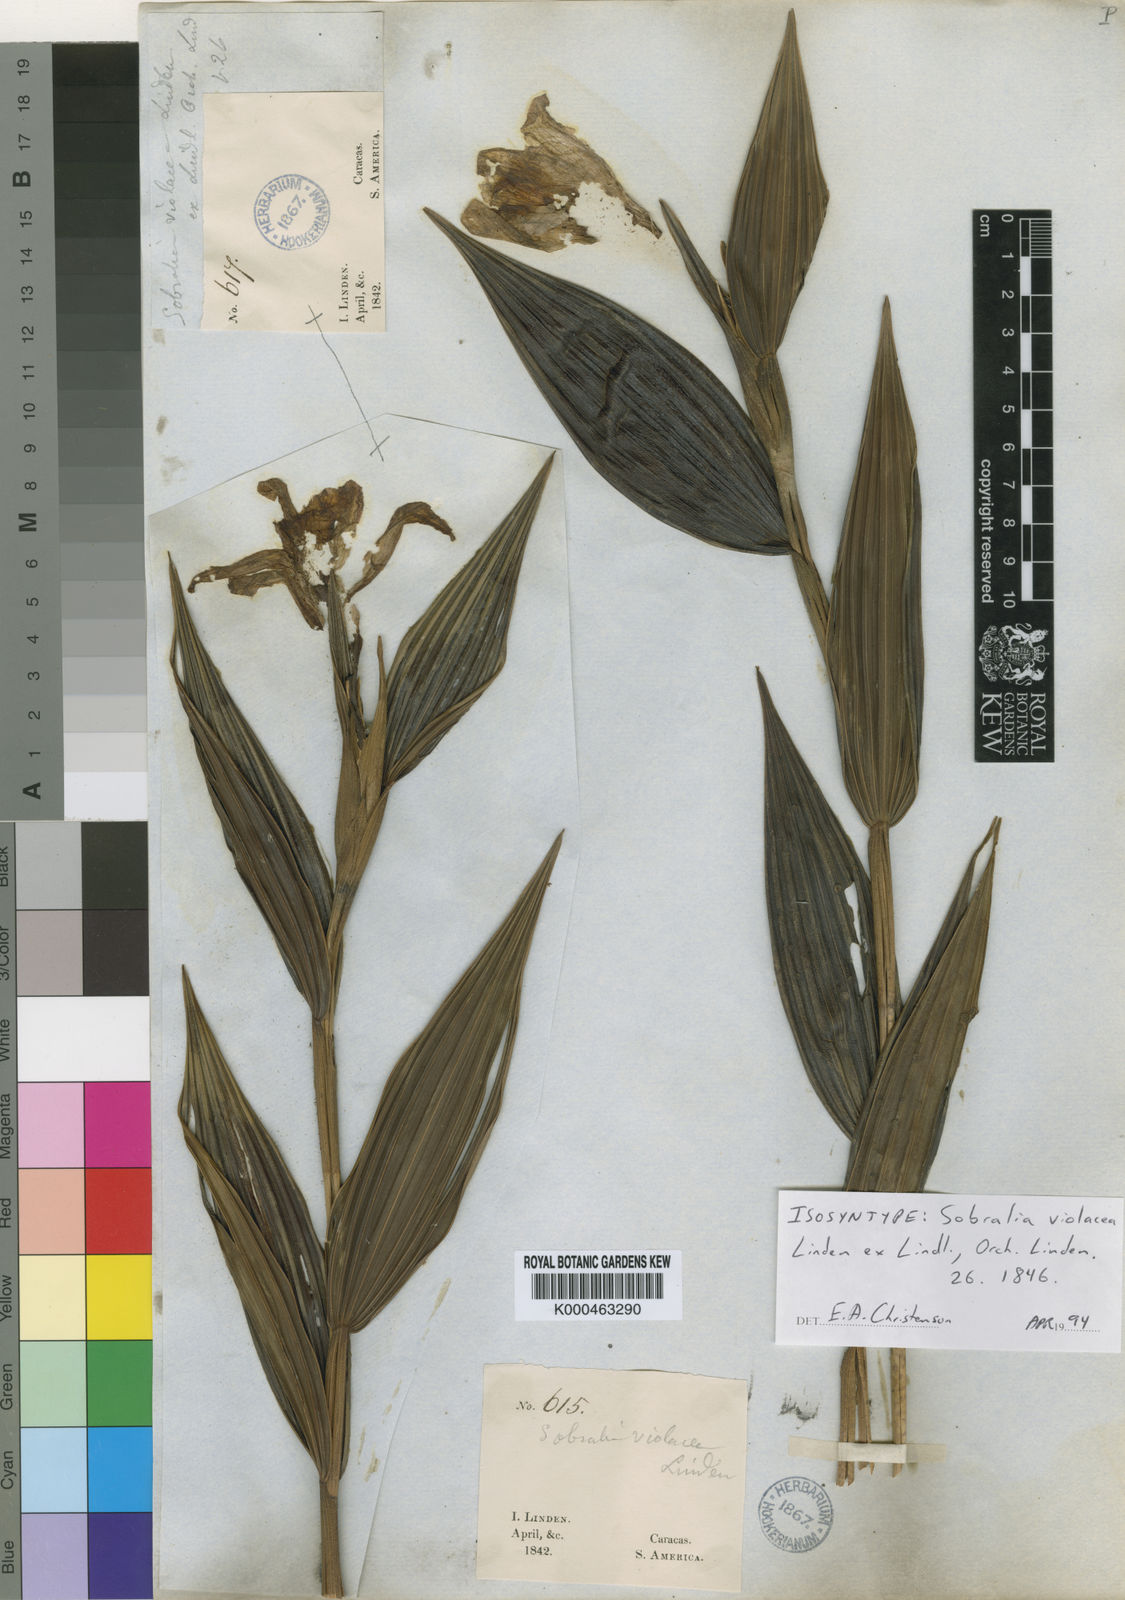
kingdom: Plantae
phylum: Tracheophyta
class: Liliopsida
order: Asparagales
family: Orchidaceae
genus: Sobralia
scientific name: Sobralia violacea
